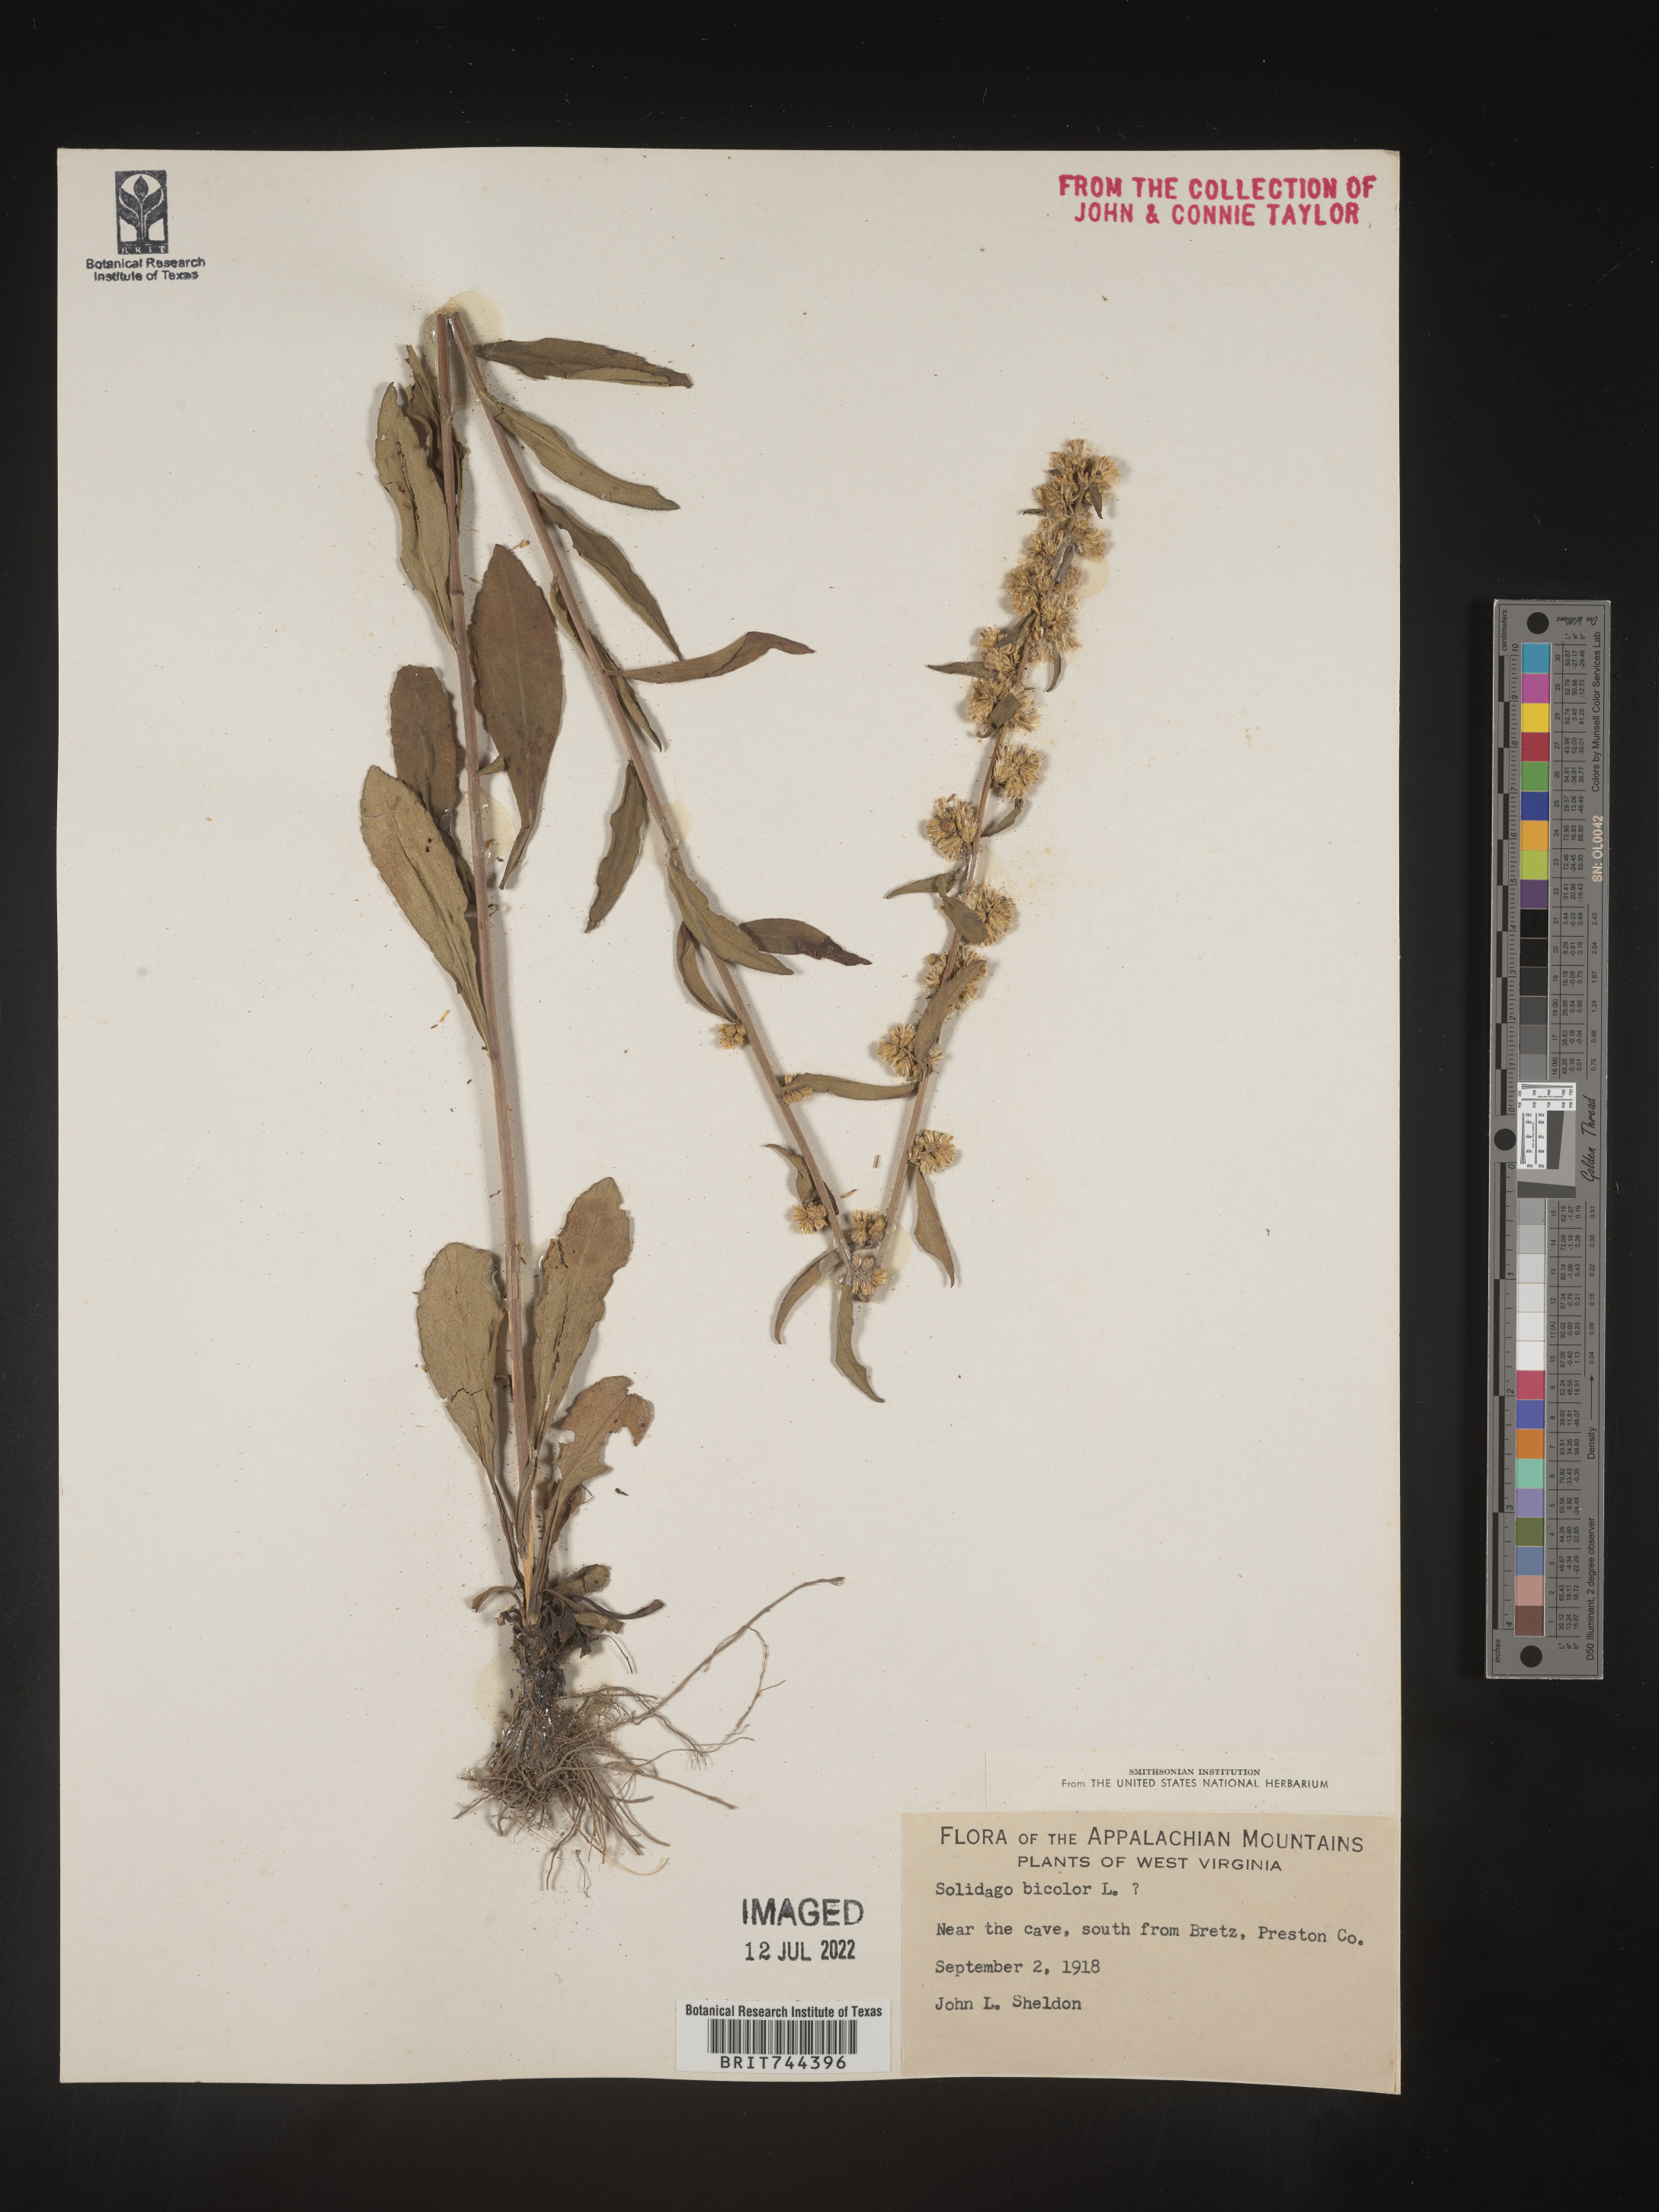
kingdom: Plantae
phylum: Tracheophyta
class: Magnoliopsida
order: Asterales
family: Asteraceae
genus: Solidago
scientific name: Solidago bicolor
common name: Silverrod
